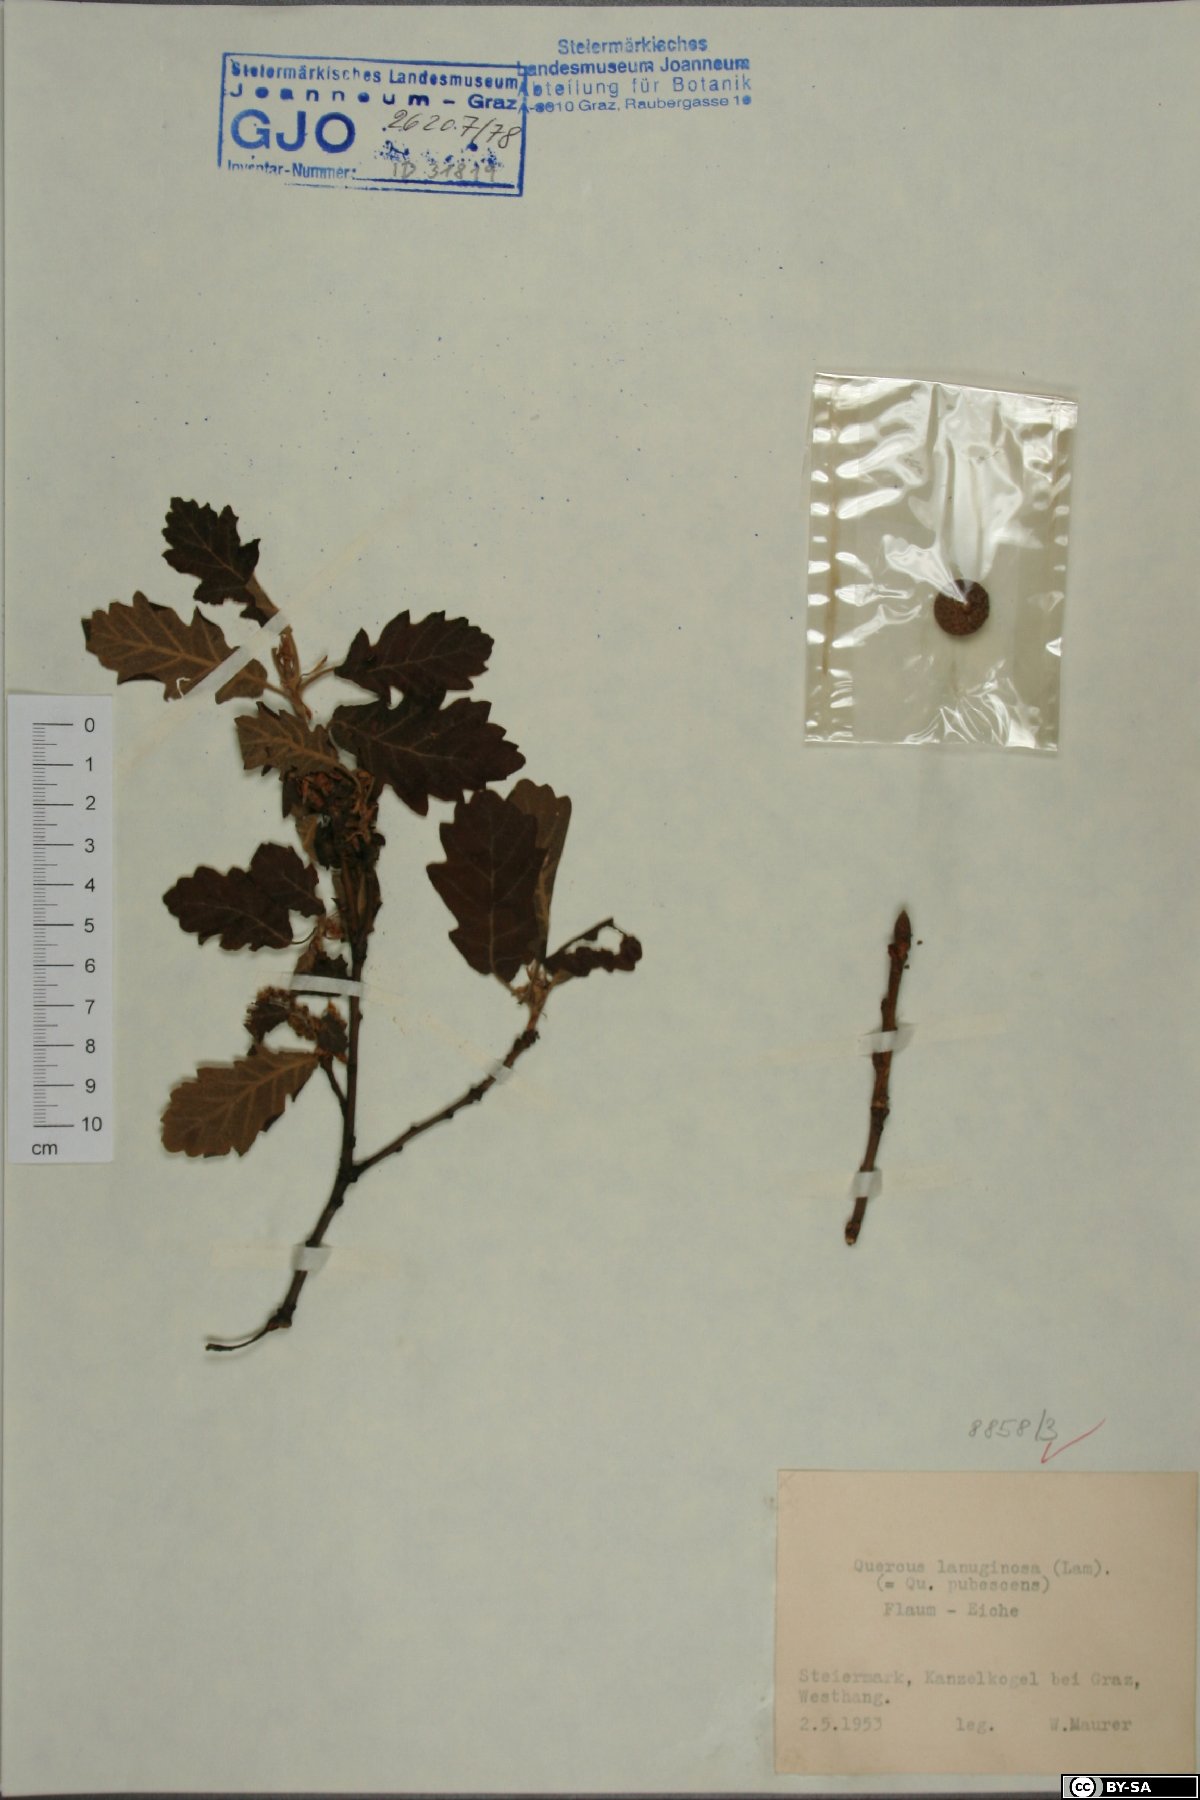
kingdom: Plantae
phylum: Tracheophyta
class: Magnoliopsida
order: Fagales
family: Fagaceae
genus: Quercus
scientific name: Quercus pubescens
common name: Downy oak
